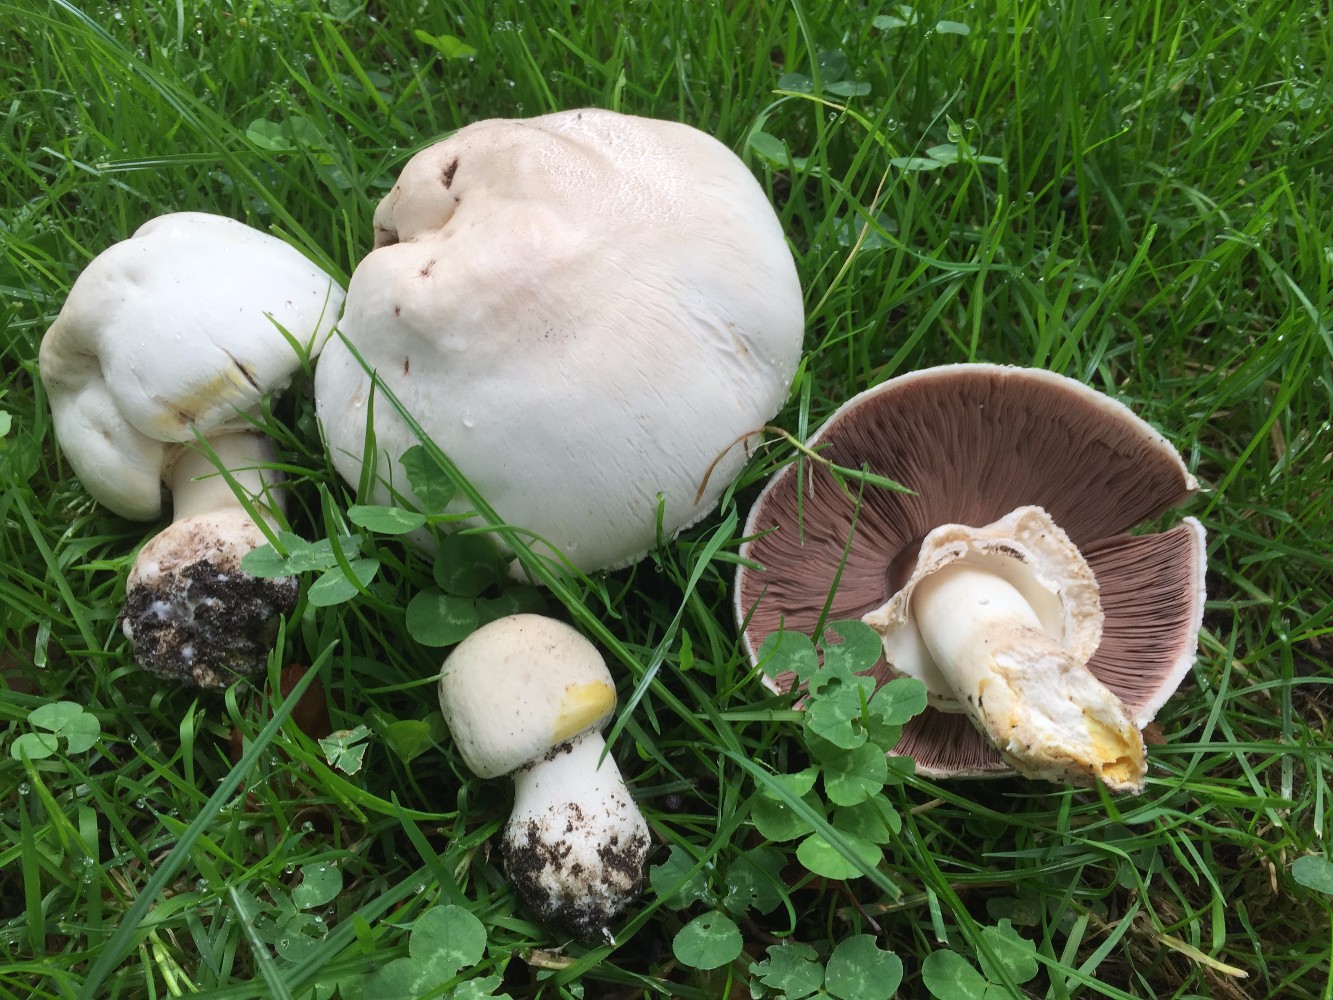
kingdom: Fungi
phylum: Basidiomycota
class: Agaricomycetes
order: Agaricales
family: Agaricaceae
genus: Agaricus
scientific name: Agaricus xanthodermus
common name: karbol-champignon
